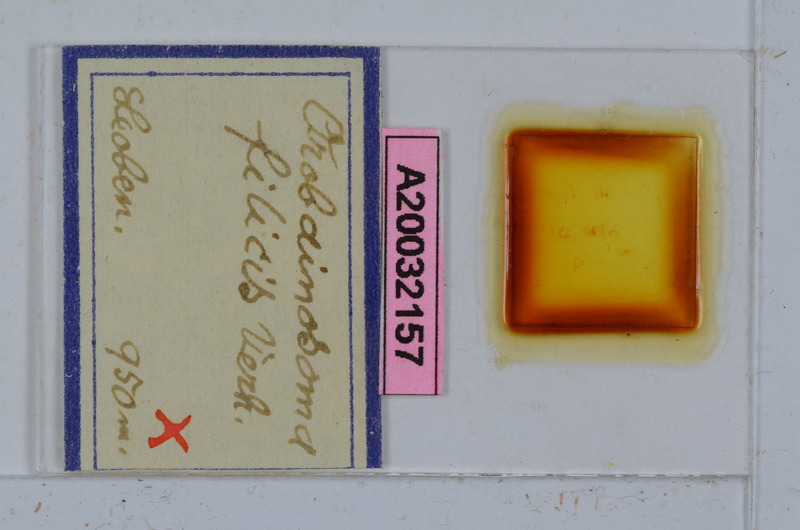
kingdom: Animalia
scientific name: Animalia
